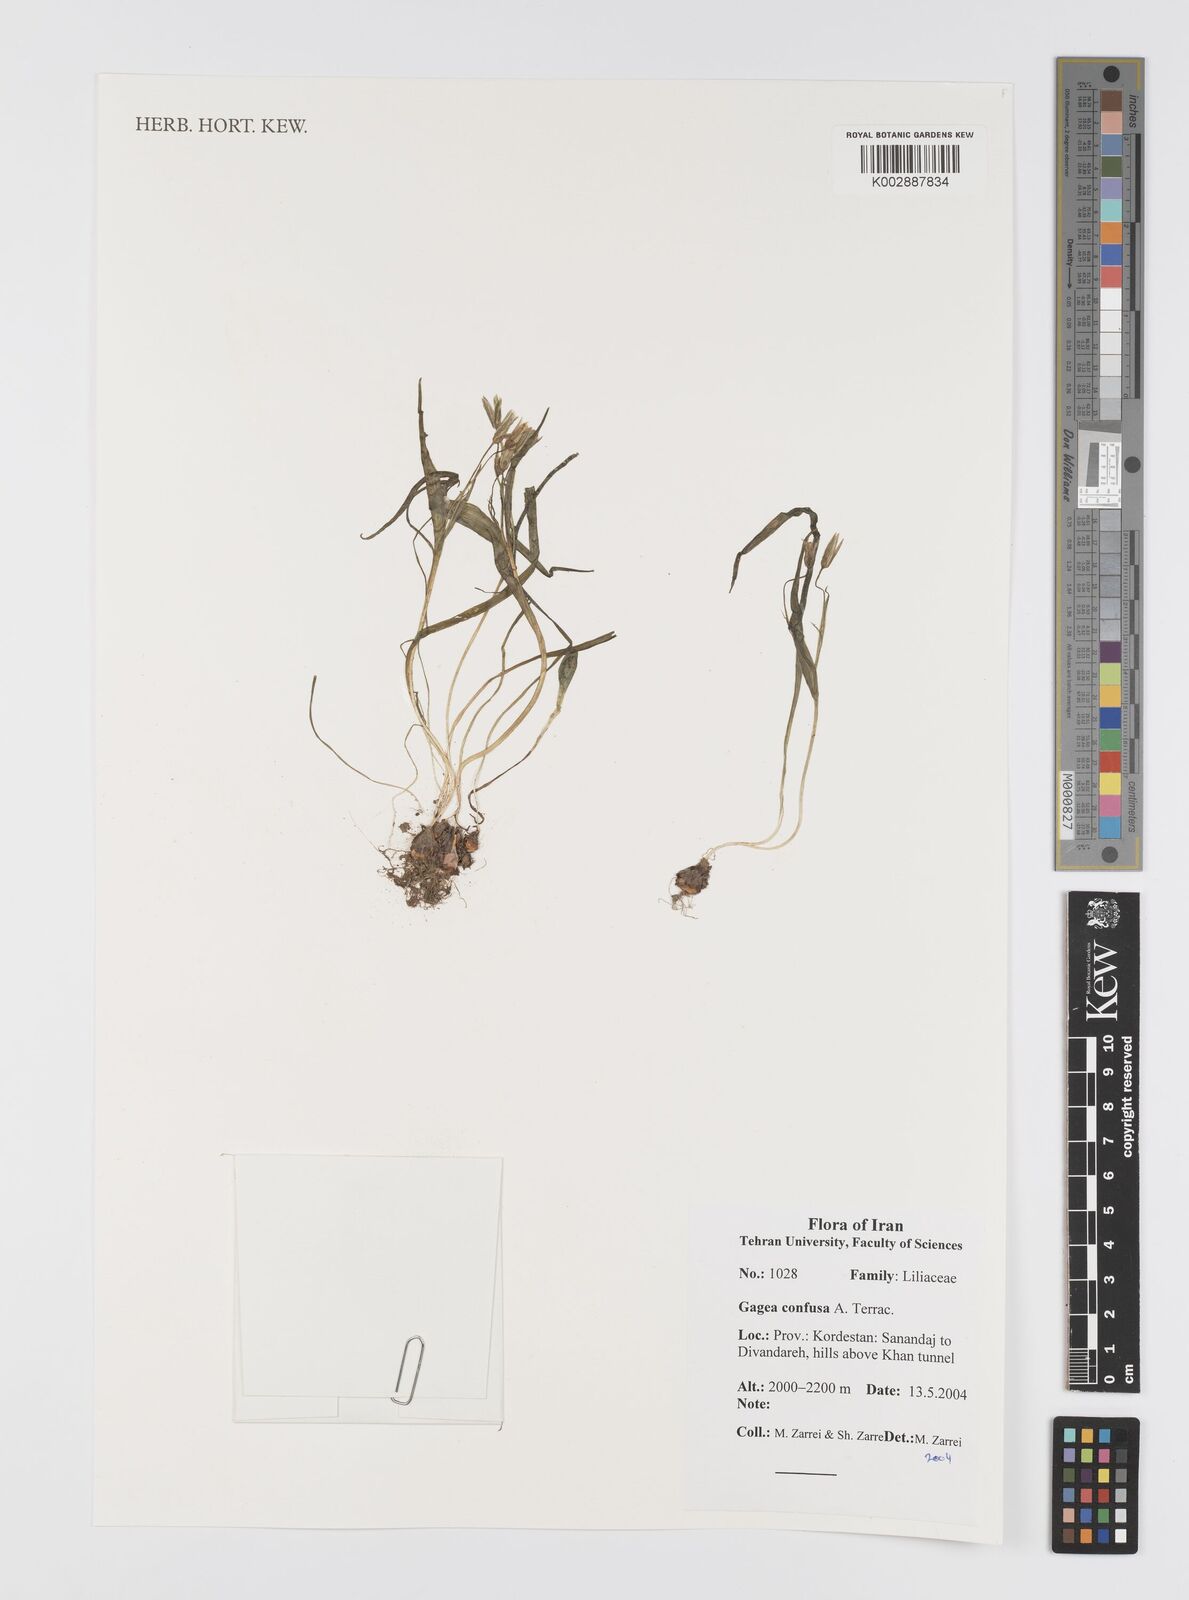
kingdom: Plantae
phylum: Tracheophyta
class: Liliopsida
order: Liliales
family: Liliaceae
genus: Gagea
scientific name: Gagea confusa
